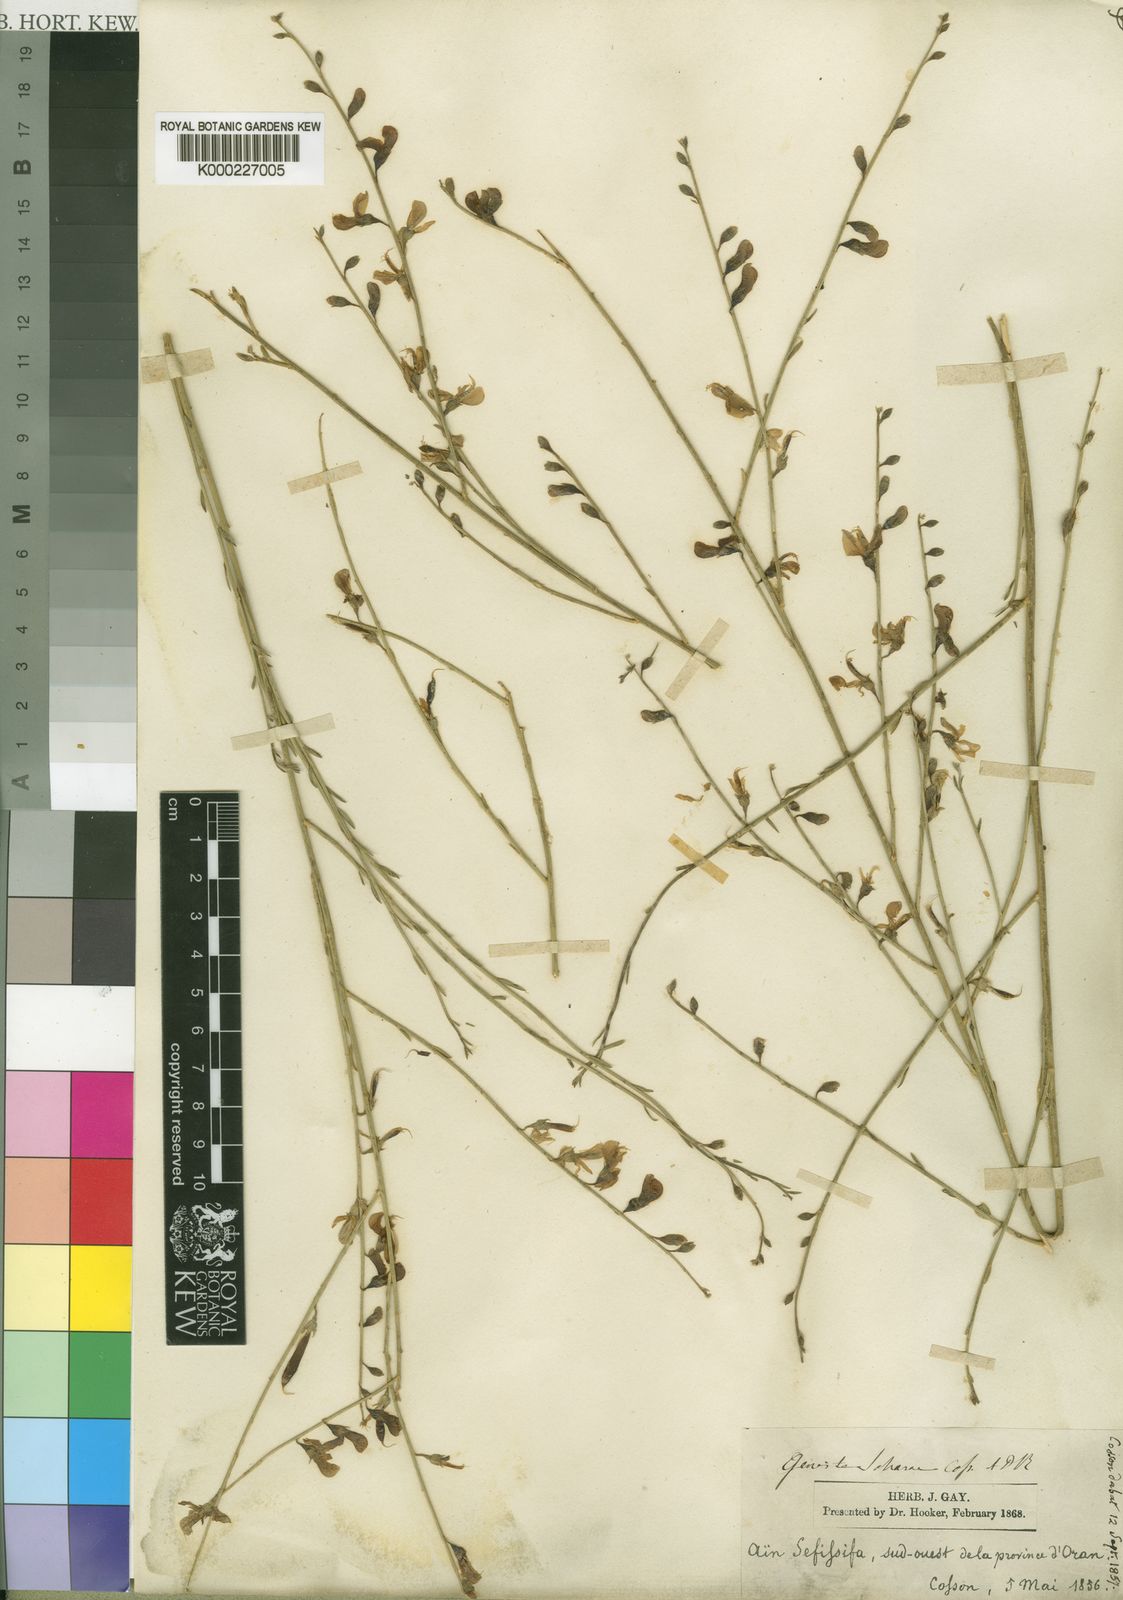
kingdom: Plantae
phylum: Tracheophyta
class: Magnoliopsida
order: Fabales
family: Fabaceae
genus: Calobota
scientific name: Calobota saharae
